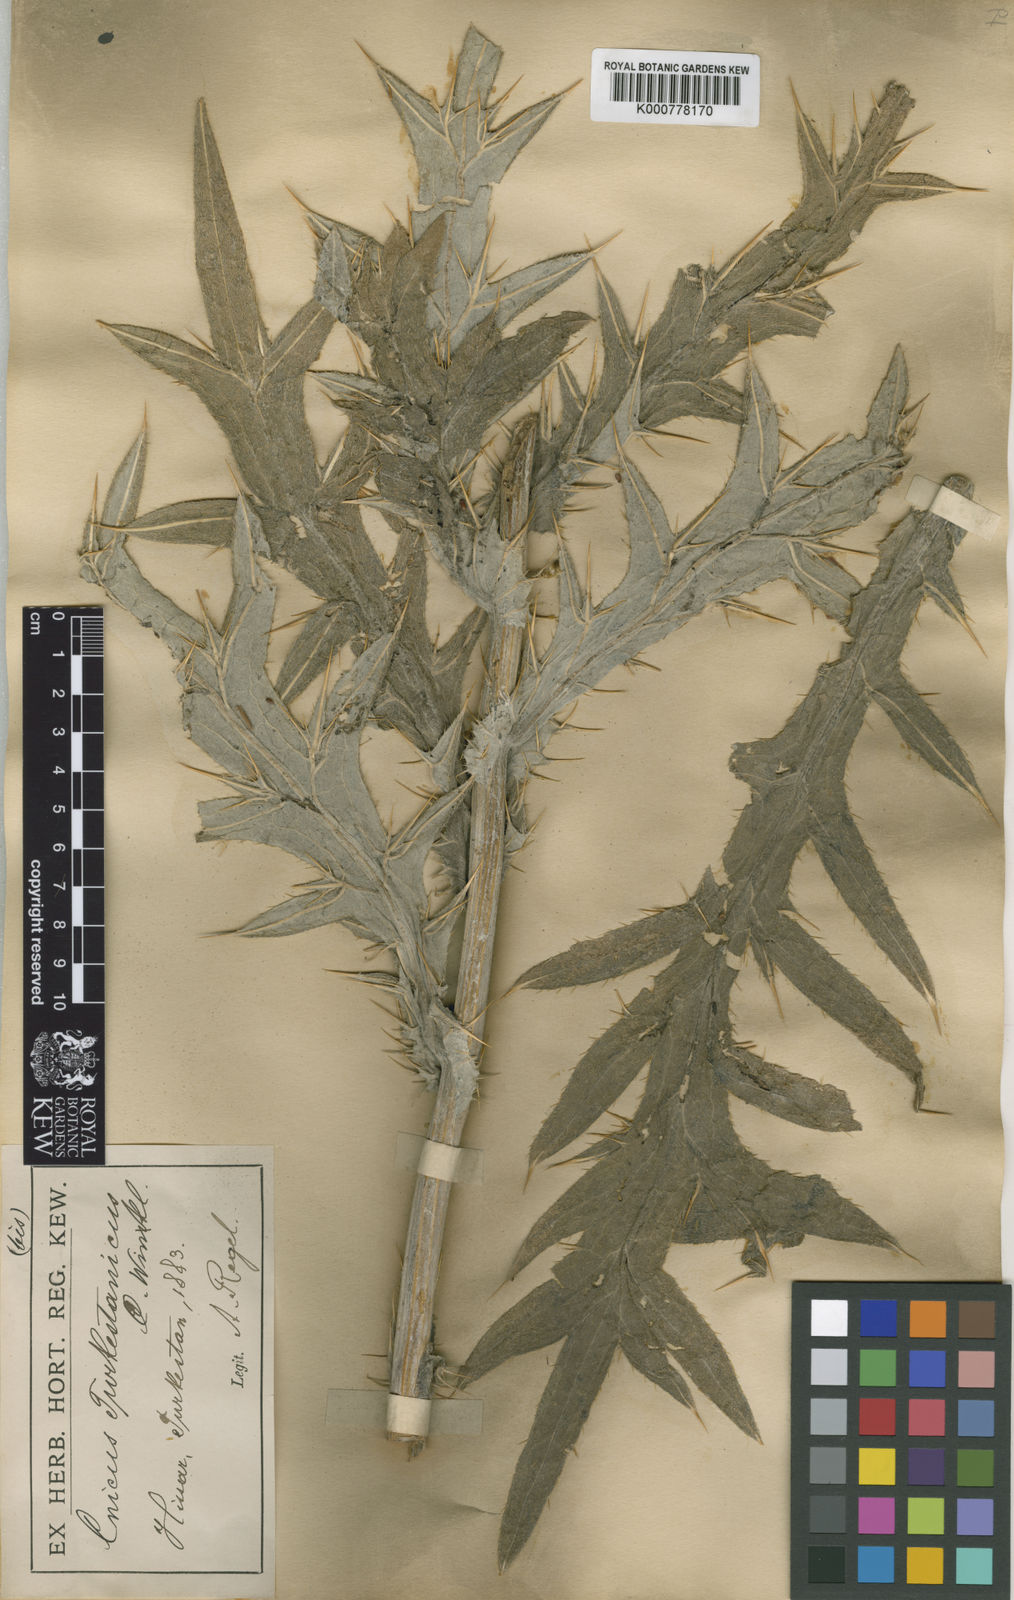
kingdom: Plantae
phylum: Tracheophyta
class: Magnoliopsida
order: Asterales
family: Asteraceae
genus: Lophiolepis
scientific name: Lophiolepis eriophora
